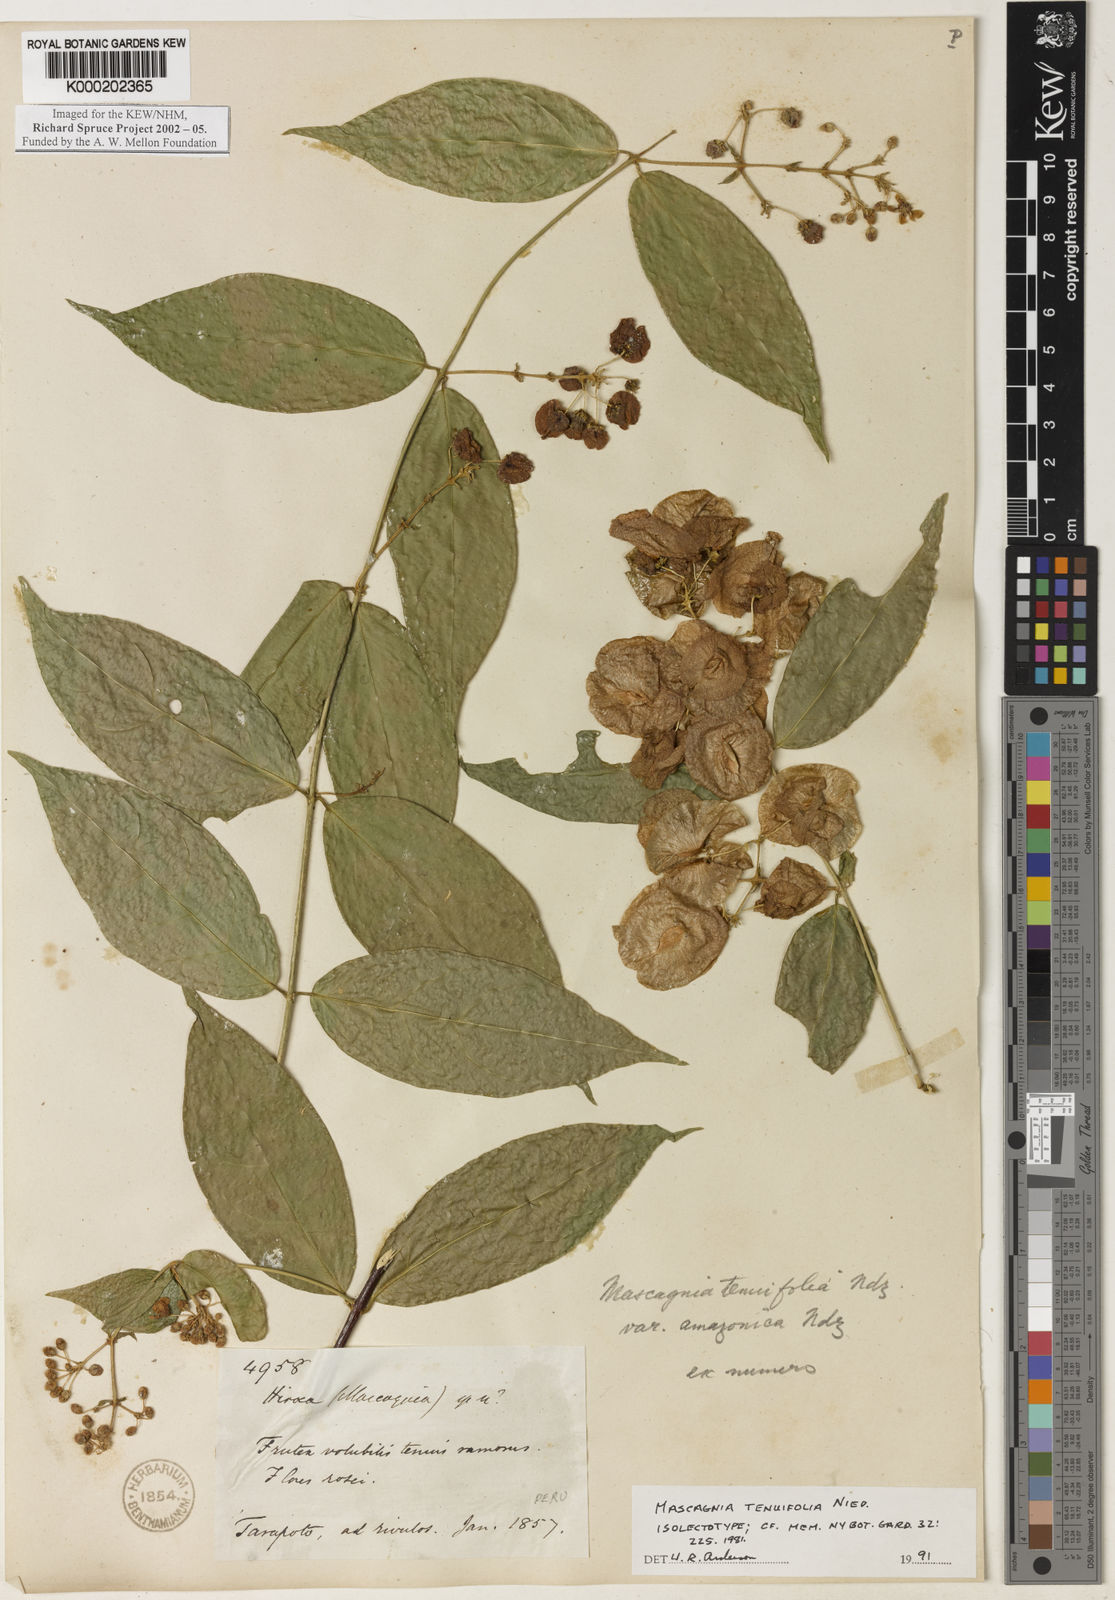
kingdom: Plantae
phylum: Tracheophyta
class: Magnoliopsida
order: Malpighiales
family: Malpighiaceae
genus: Mascagnia
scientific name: Mascagnia tenuifolia
